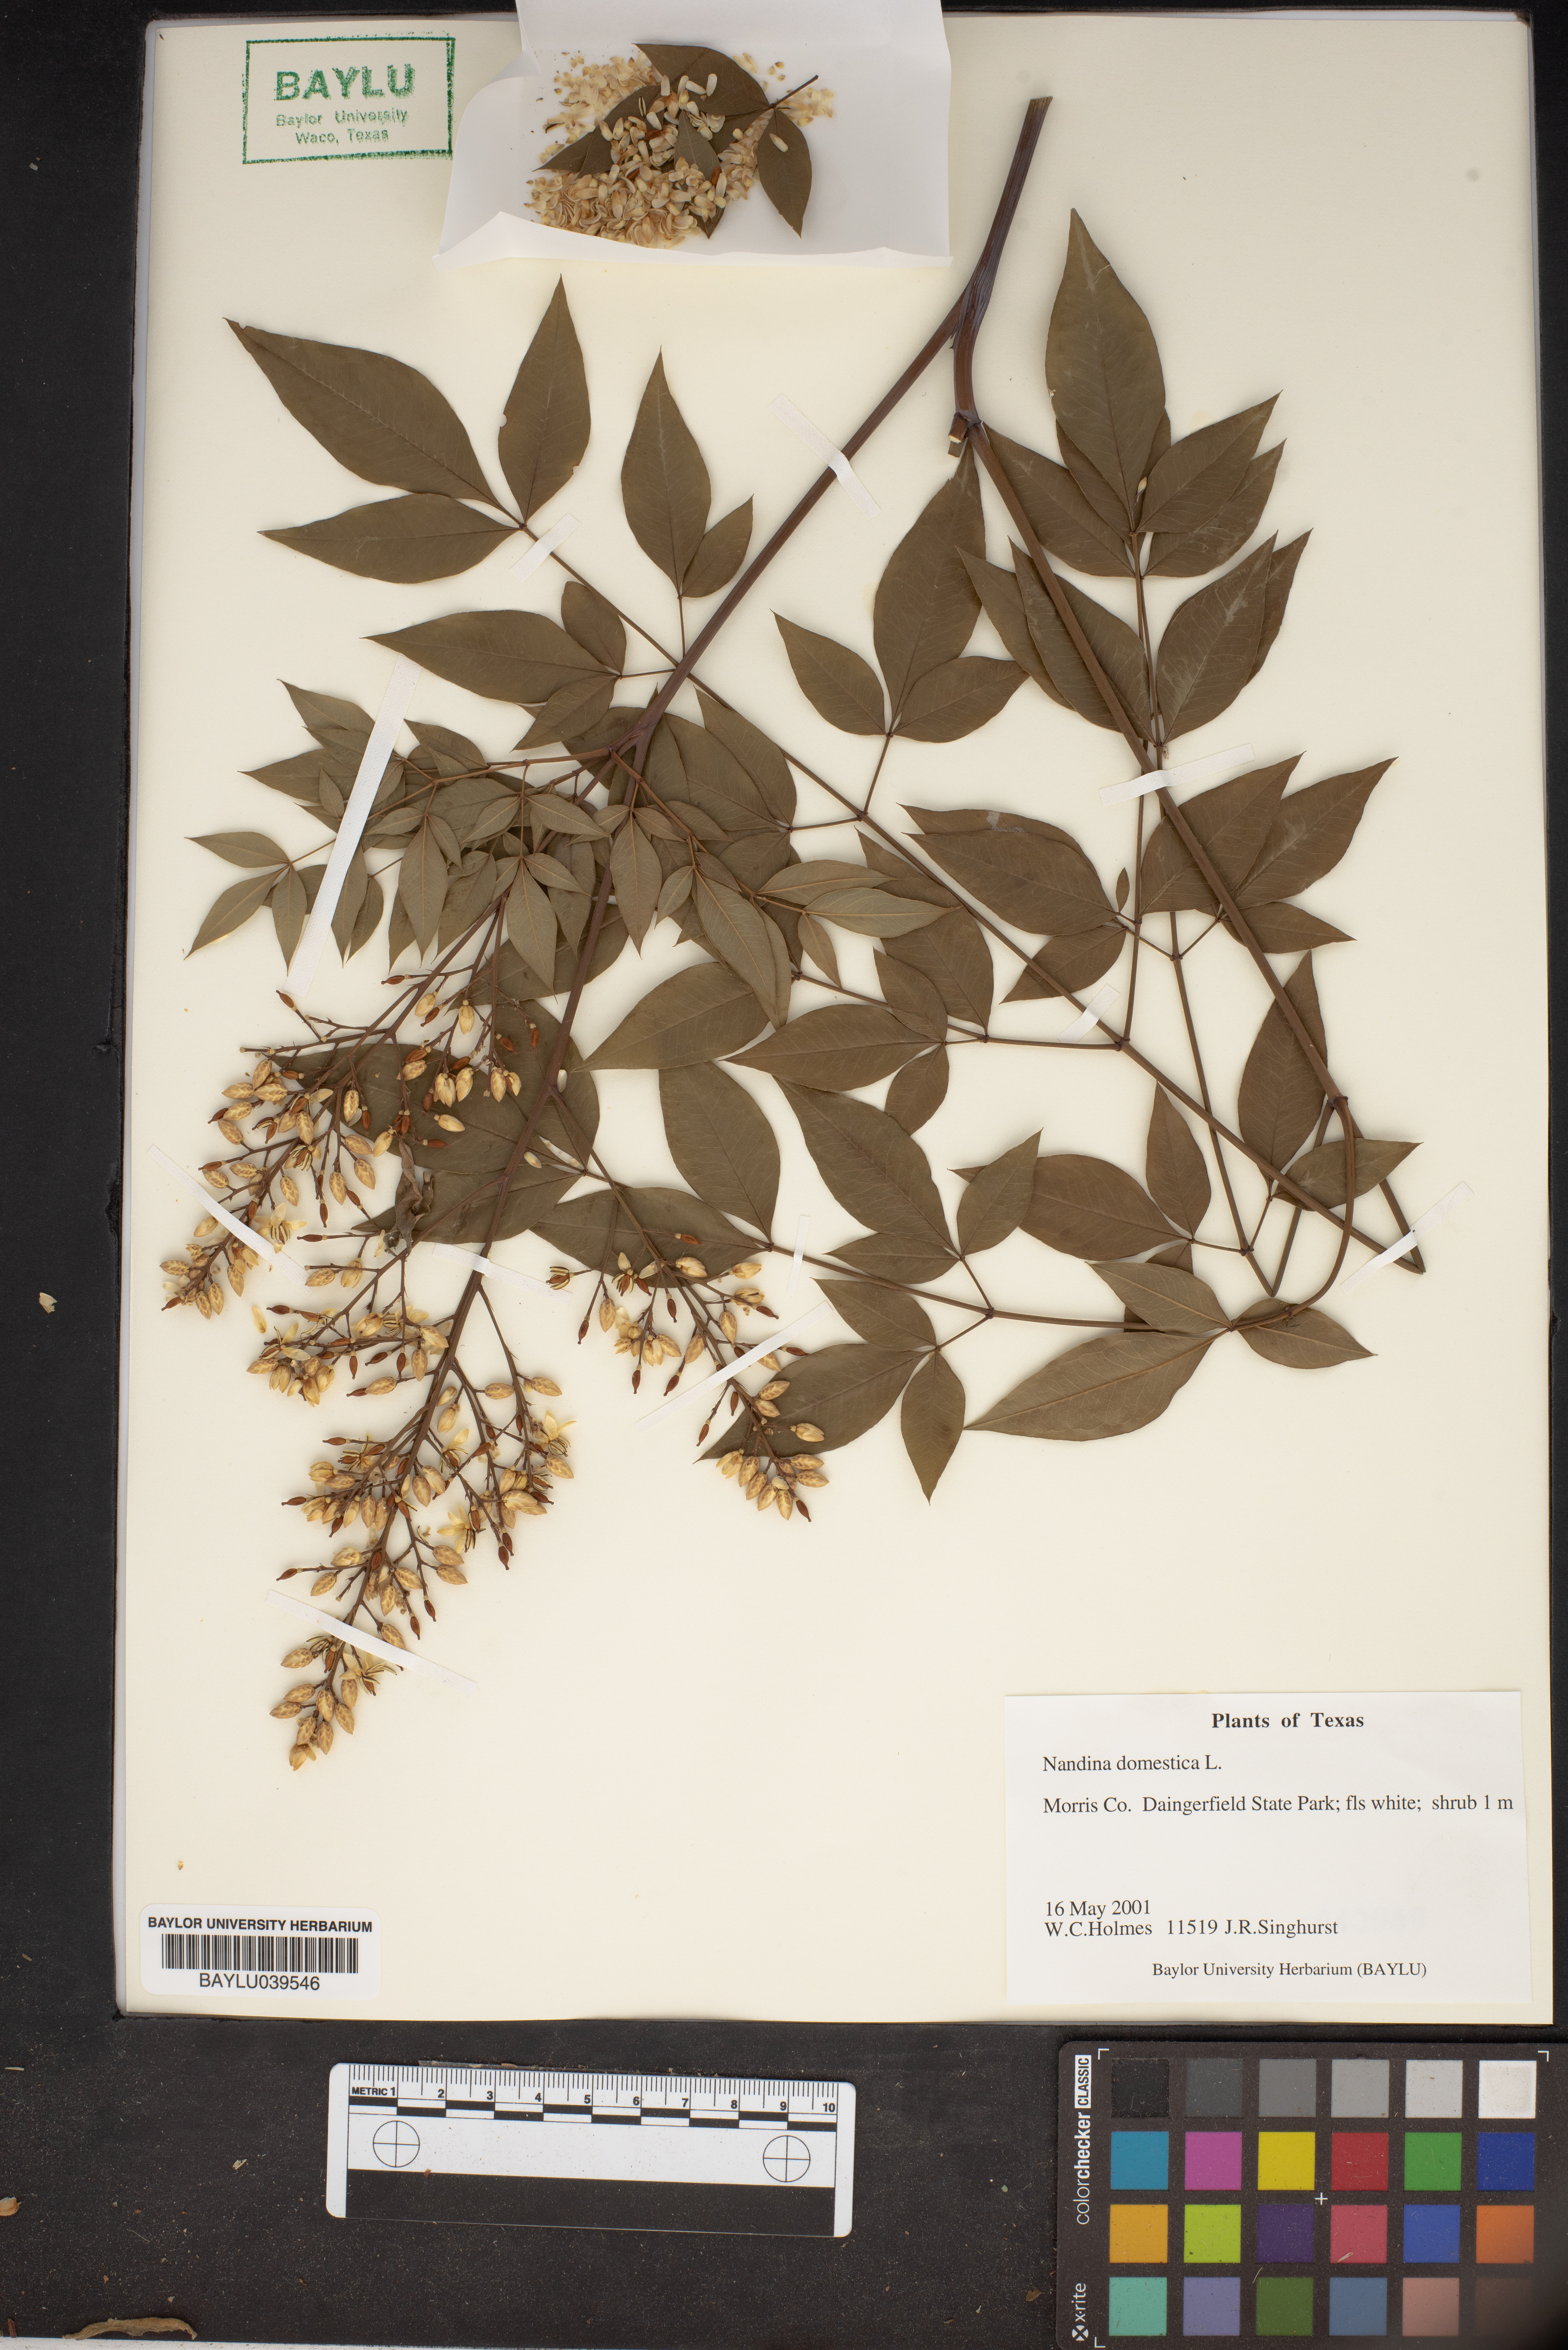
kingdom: Plantae
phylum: Tracheophyta
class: Magnoliopsida
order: Ranunculales
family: Berberidaceae
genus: Nandina
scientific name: Nandina domestica
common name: Sacred bamboo
